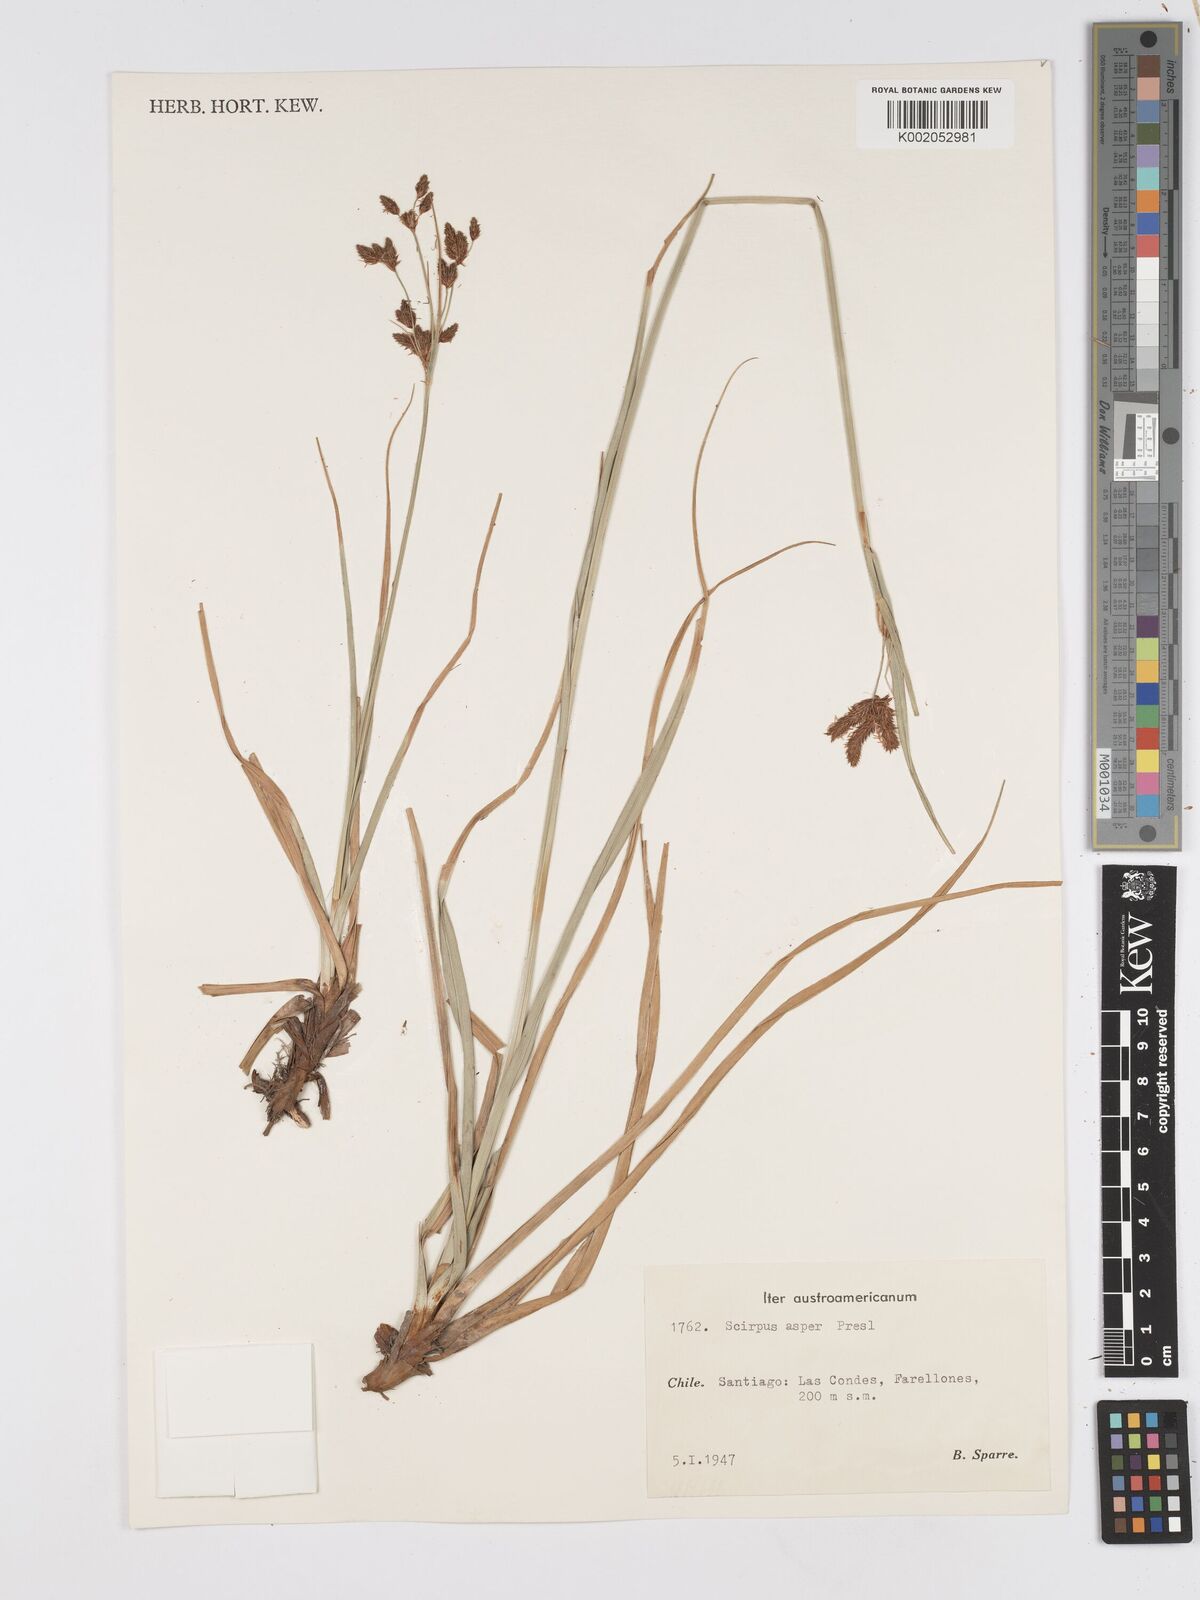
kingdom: Plantae
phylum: Tracheophyta
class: Liliopsida
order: Poales
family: Cyperaceae
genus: Rhodoscirpus
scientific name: Rhodoscirpus asper
